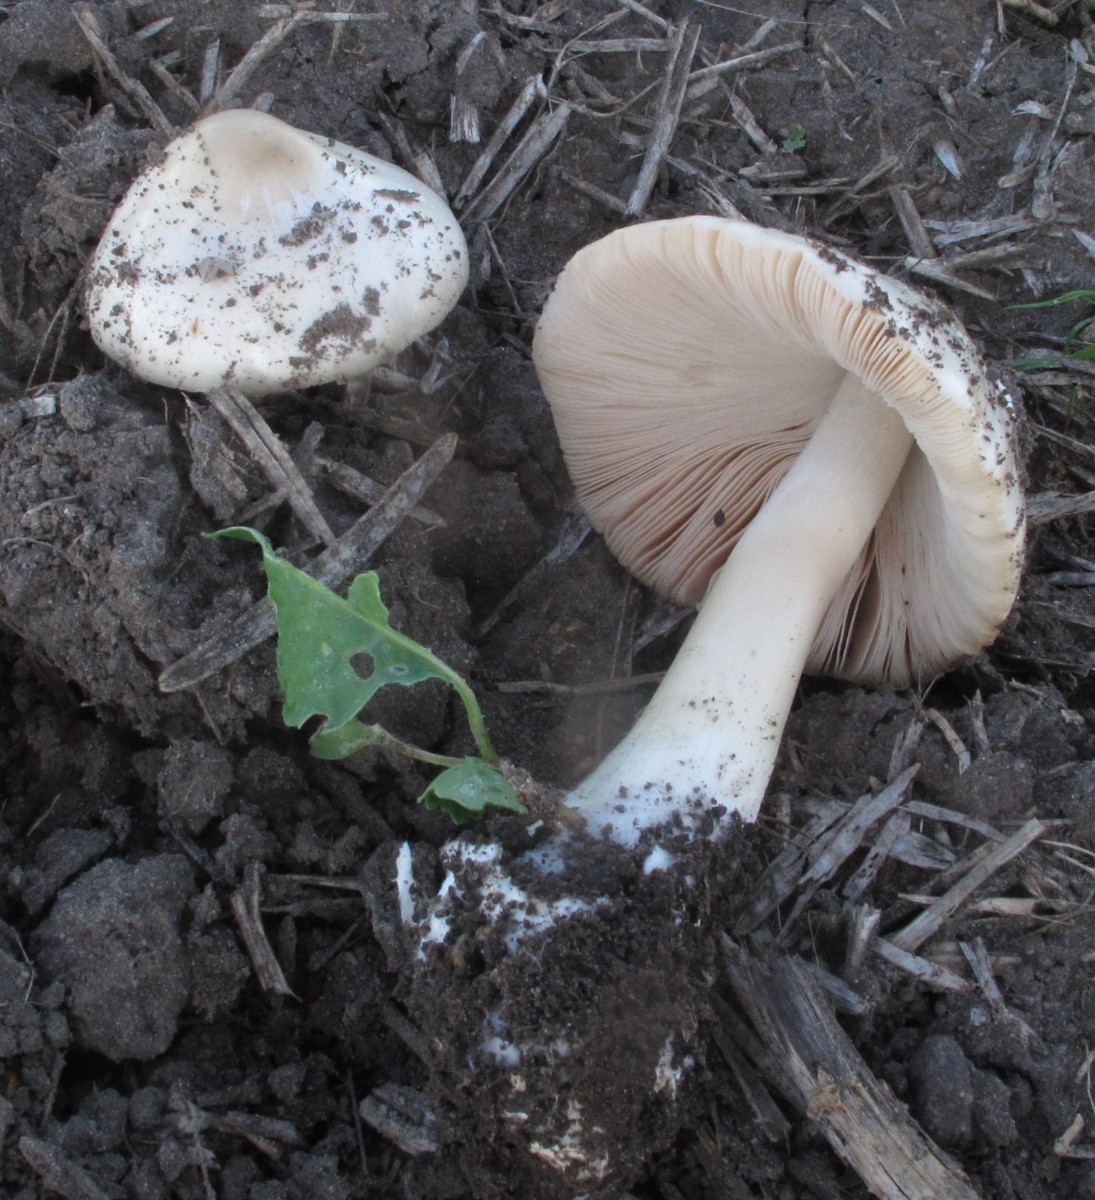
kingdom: Fungi
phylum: Basidiomycota
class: Agaricomycetes
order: Agaricales
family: Pluteaceae
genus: Volvopluteus
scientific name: Volvopluteus gloiocephalus
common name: høj posesvamp
